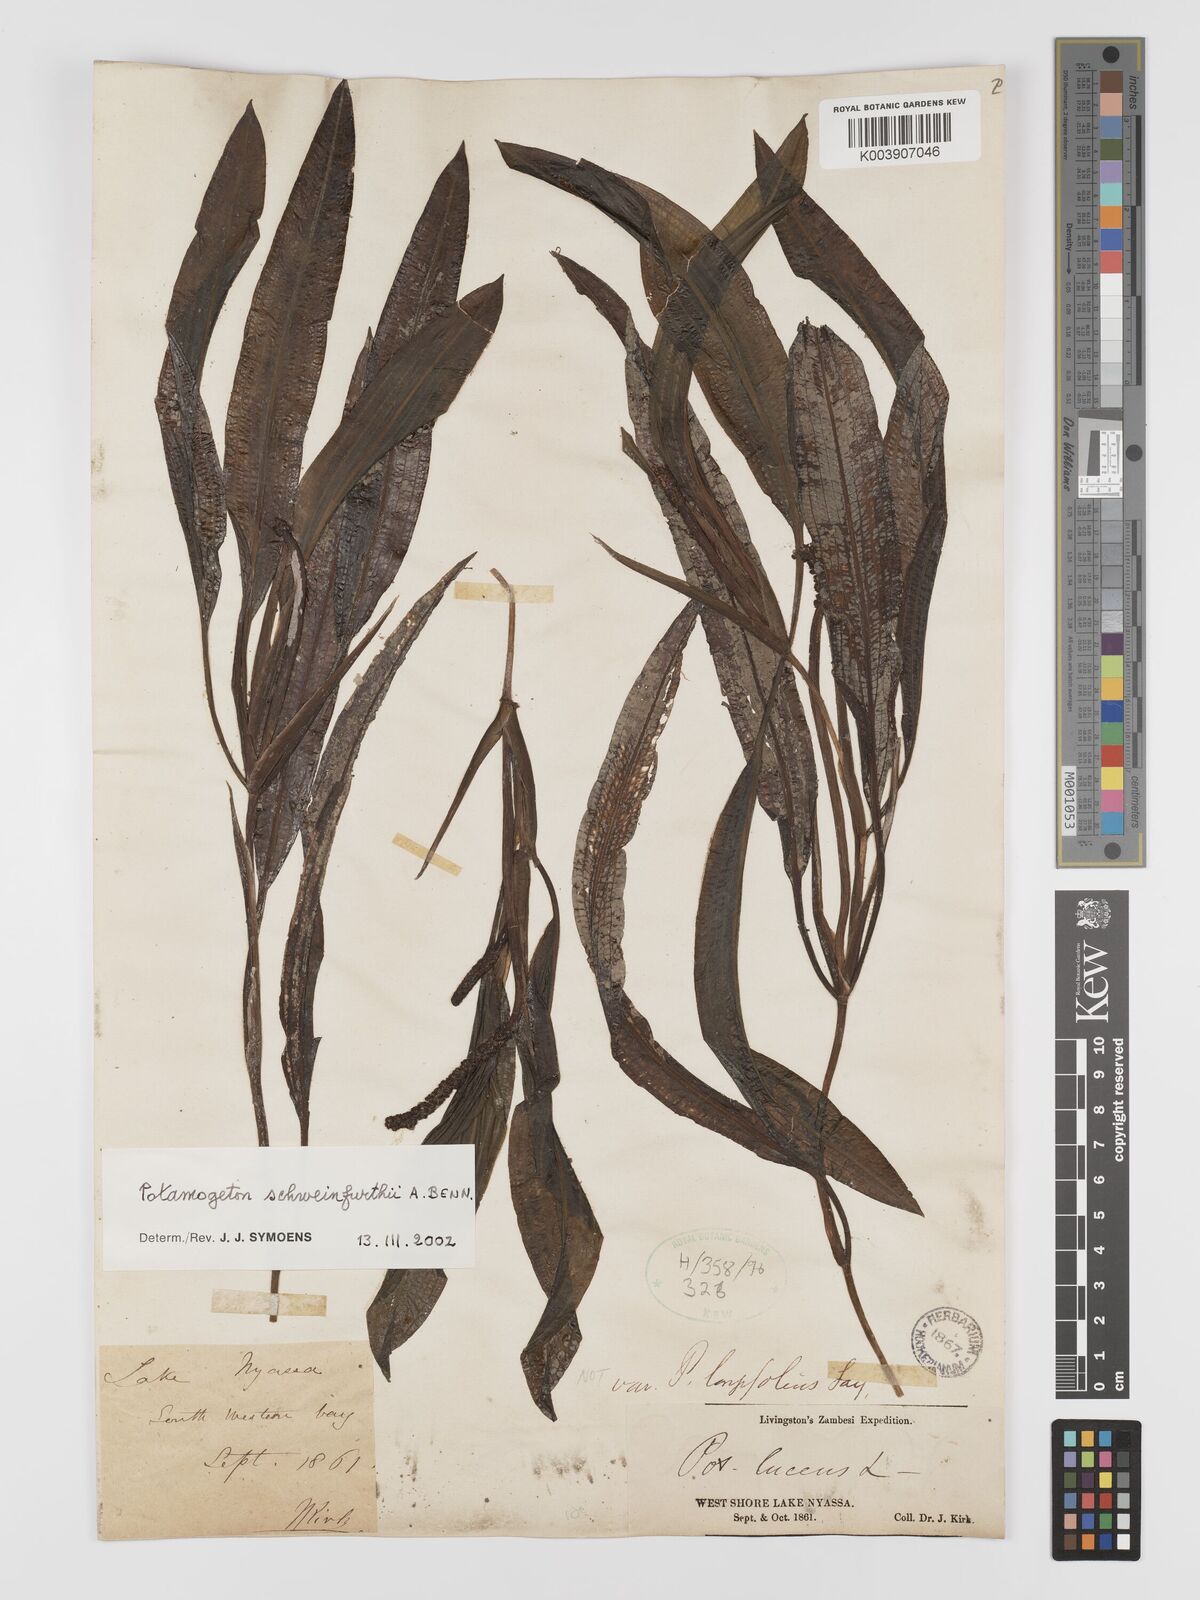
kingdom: Plantae
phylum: Tracheophyta
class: Liliopsida
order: Alismatales
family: Potamogetonaceae
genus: Potamogeton
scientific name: Potamogeton schweinfurthii
